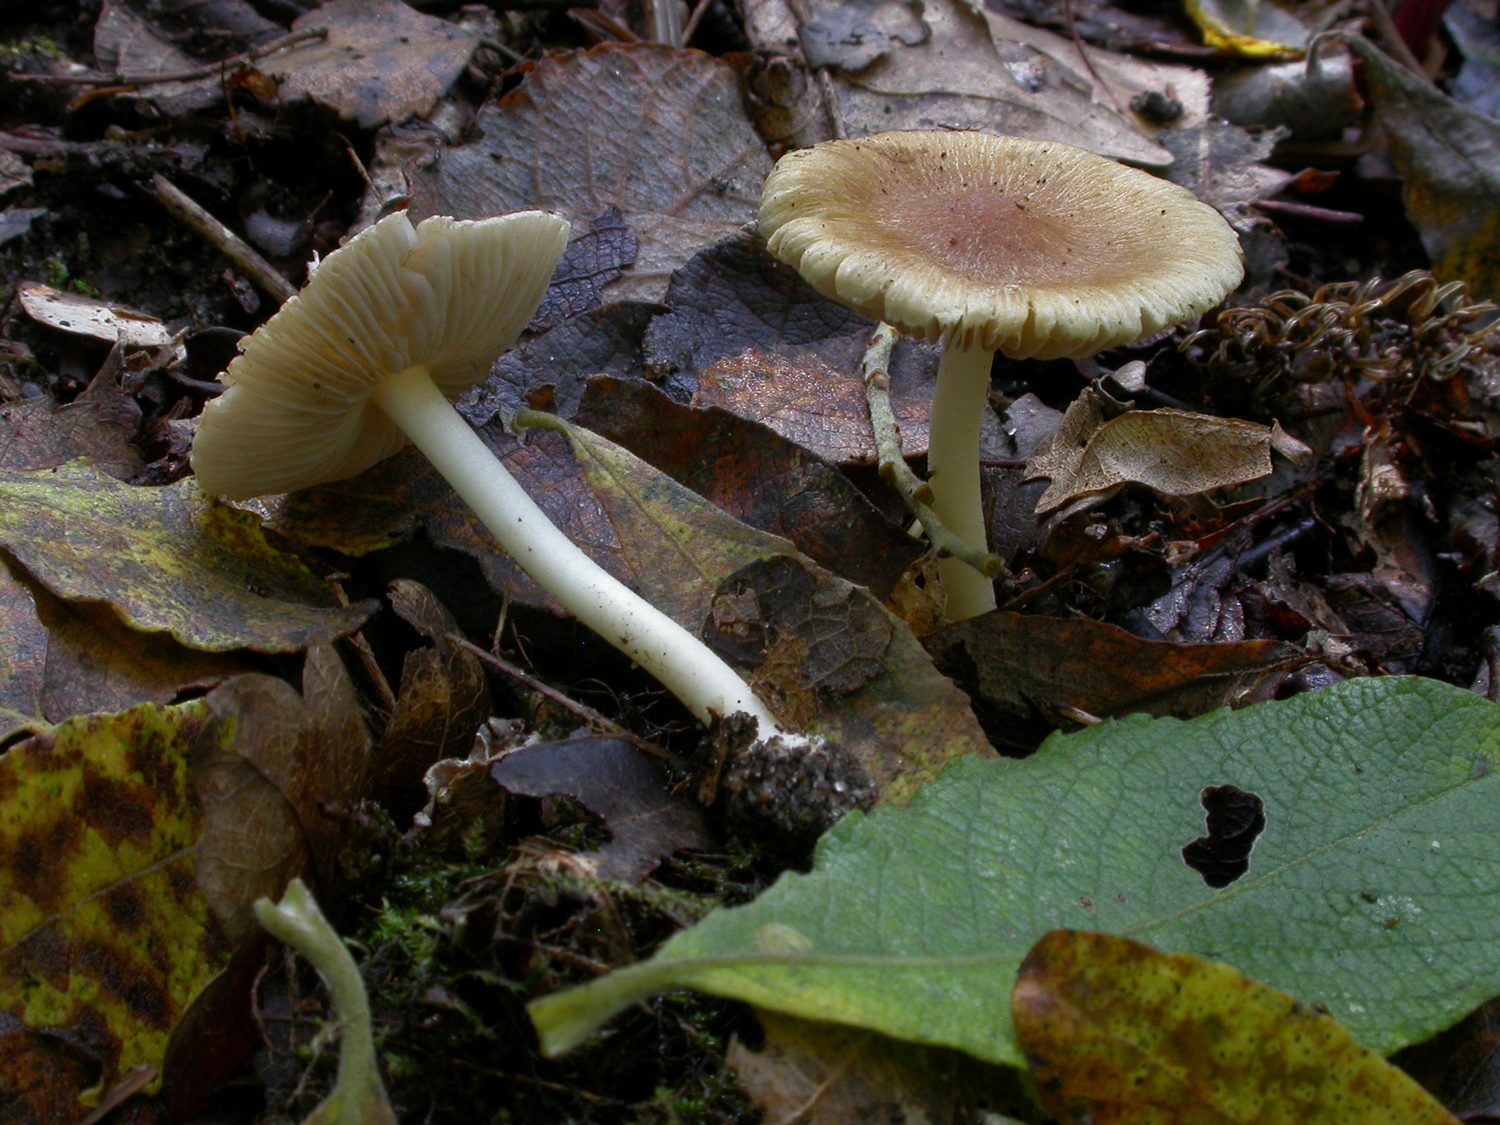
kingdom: Fungi
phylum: Basidiomycota
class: Agaricomycetes
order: Agaricales
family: Inocybaceae
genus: Inocybe
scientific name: Inocybe mixtilis
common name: randknoldet trævlhat
